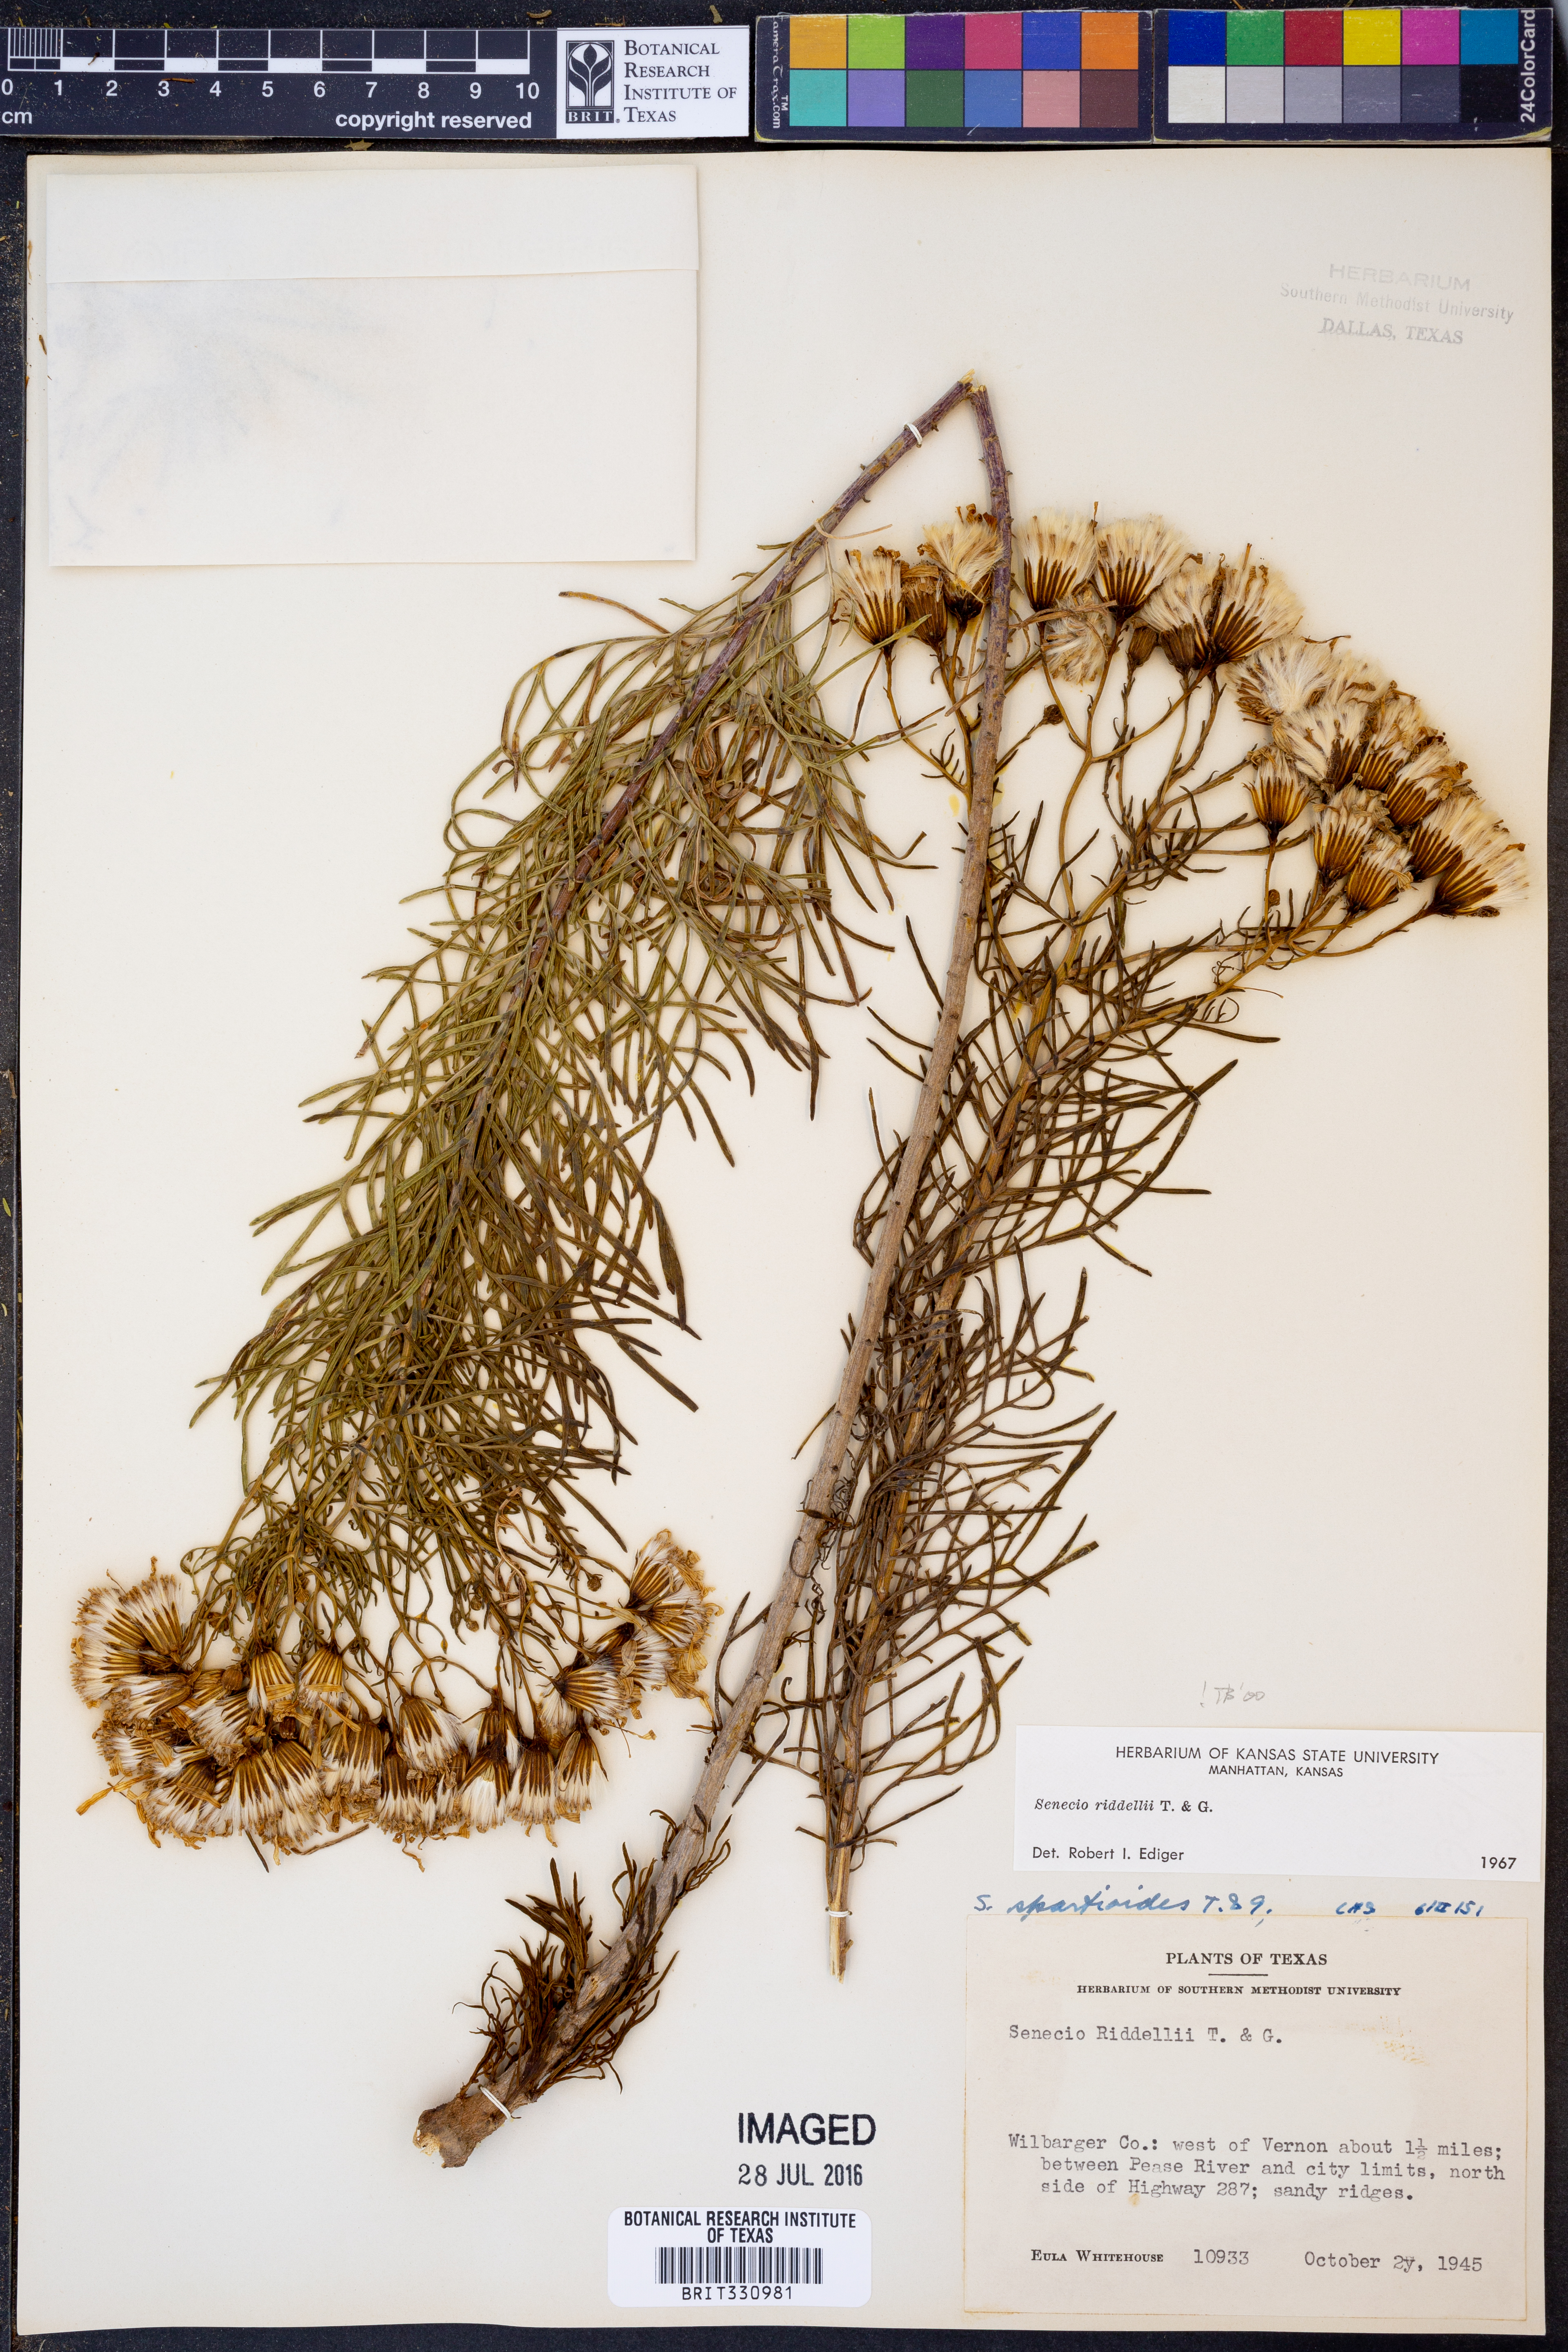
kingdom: Plantae
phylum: Tracheophyta
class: Magnoliopsida
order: Asterales
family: Asteraceae
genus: Senecio
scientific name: Senecio riddellii
